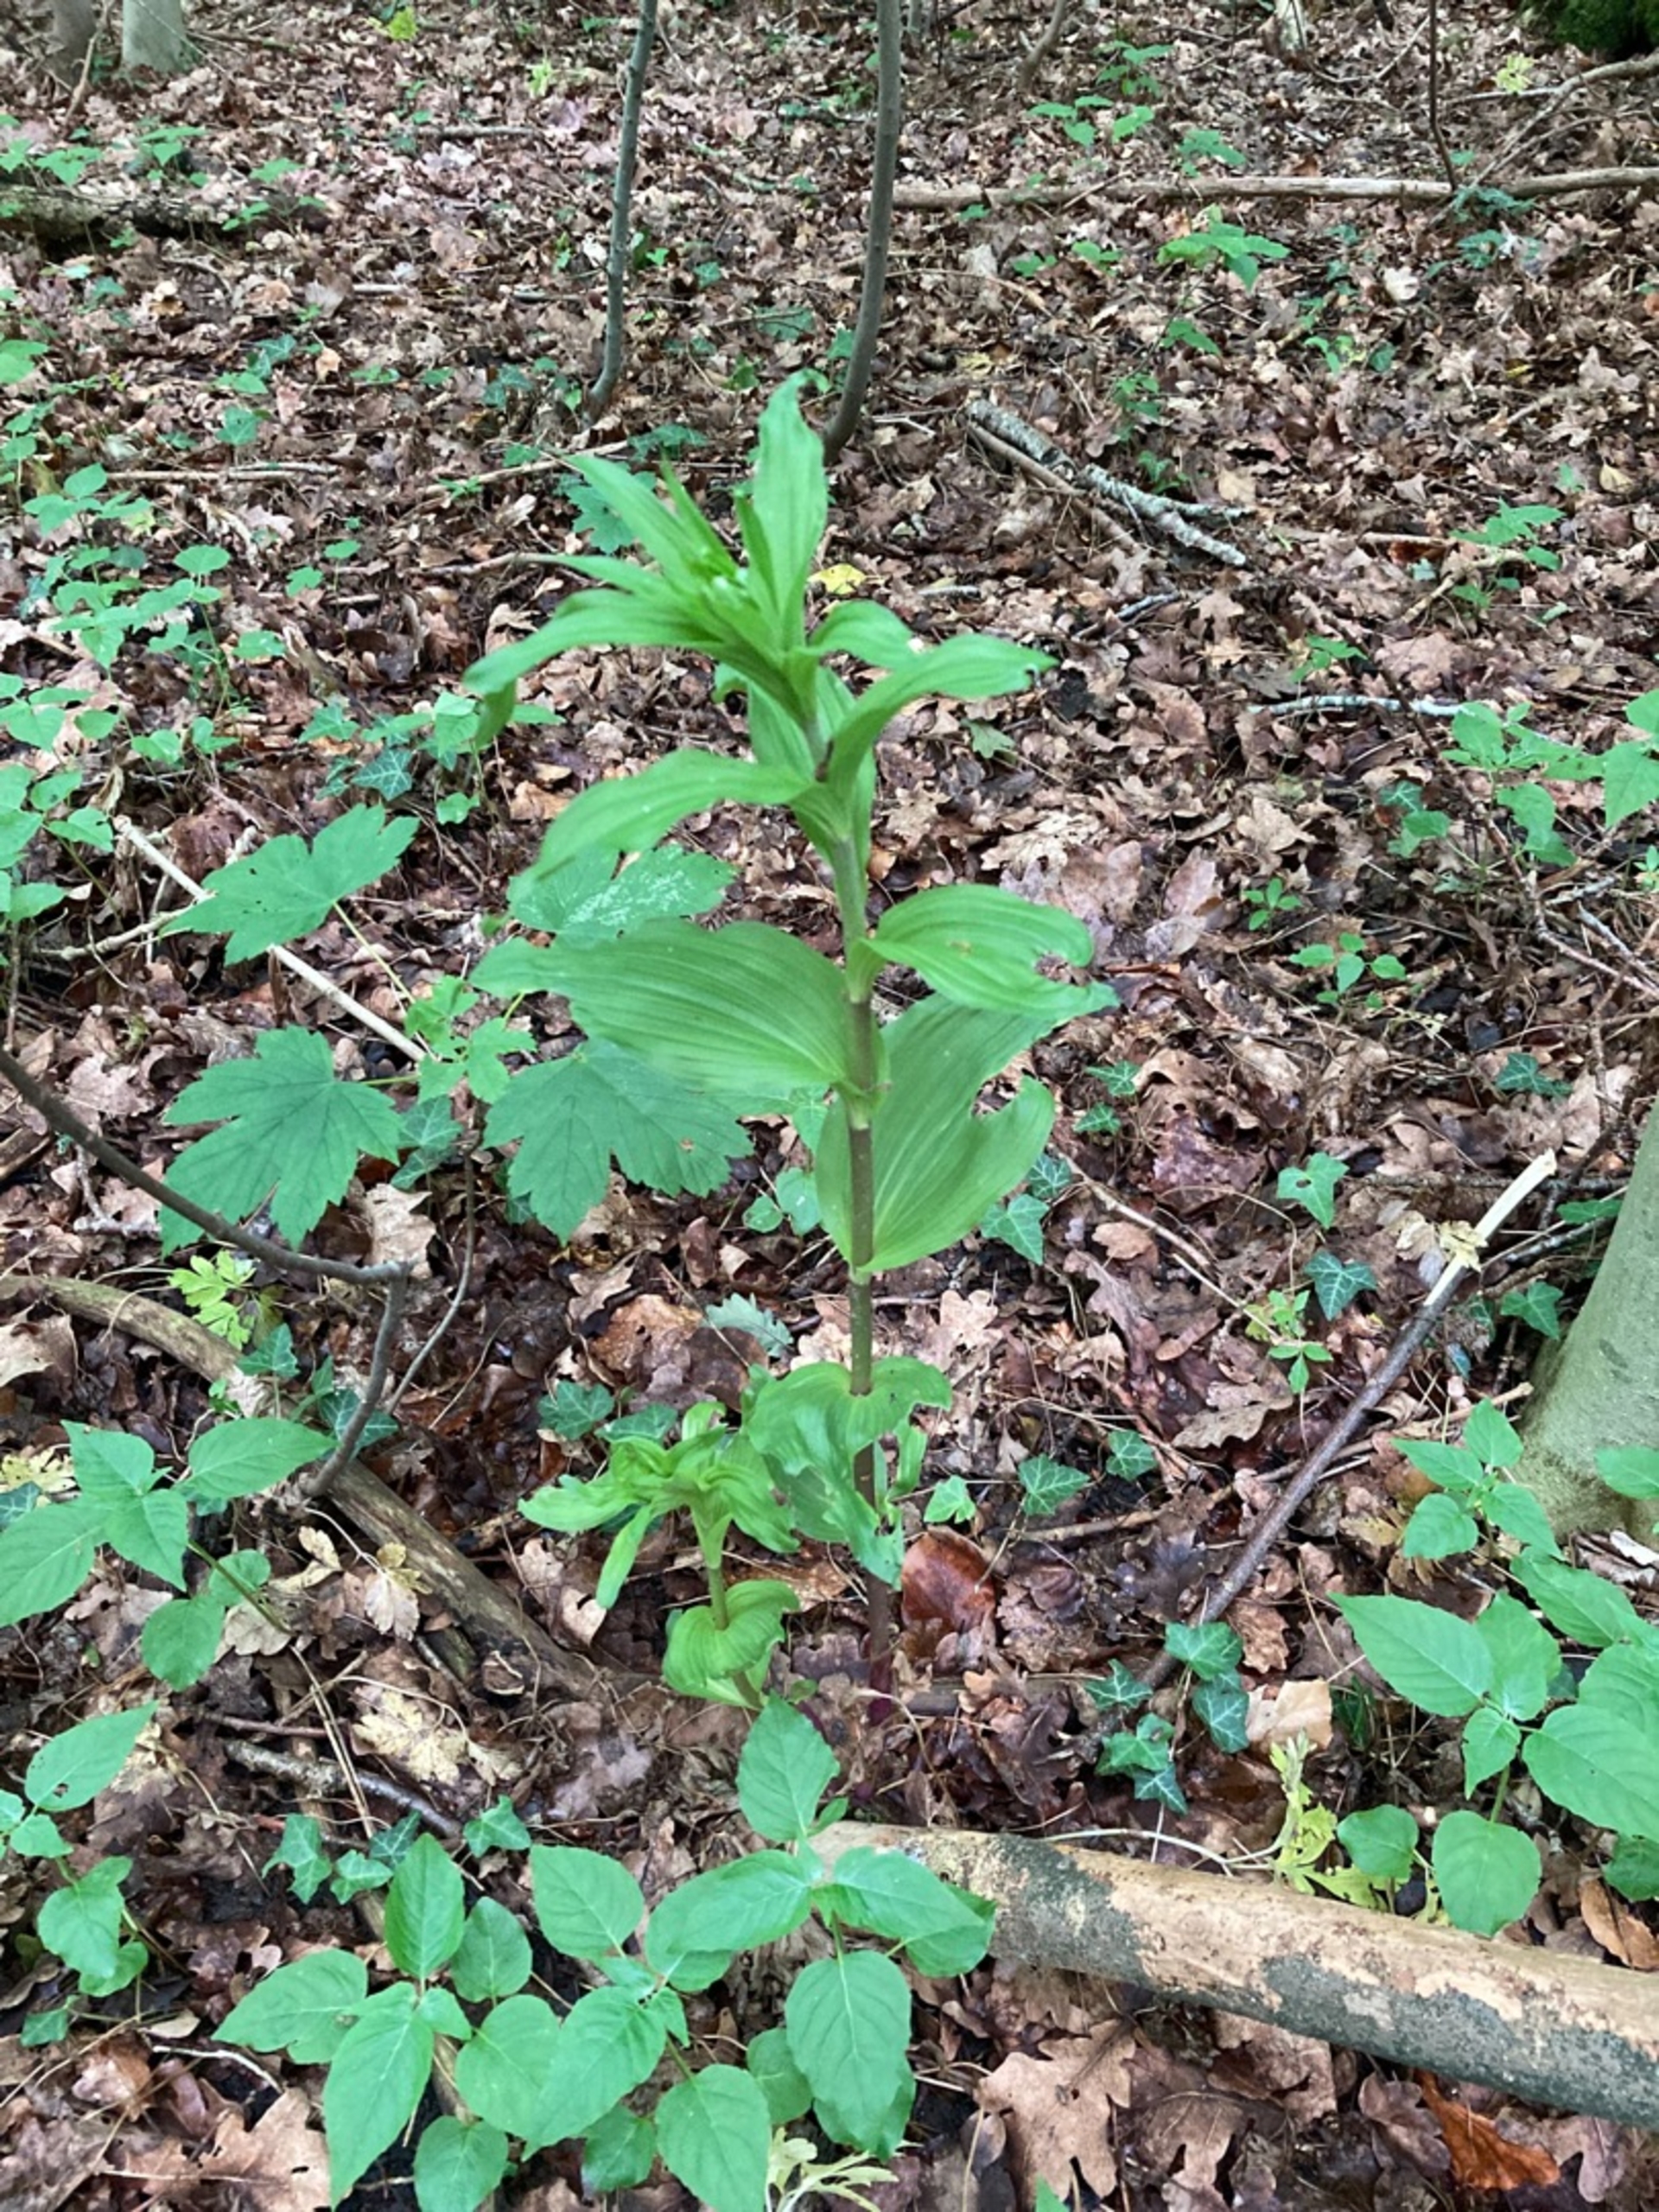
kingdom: Plantae
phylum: Tracheophyta
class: Liliopsida
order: Asparagales
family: Orchidaceae
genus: Epipactis
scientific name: Epipactis helleborine
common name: Skov-hullæbe
